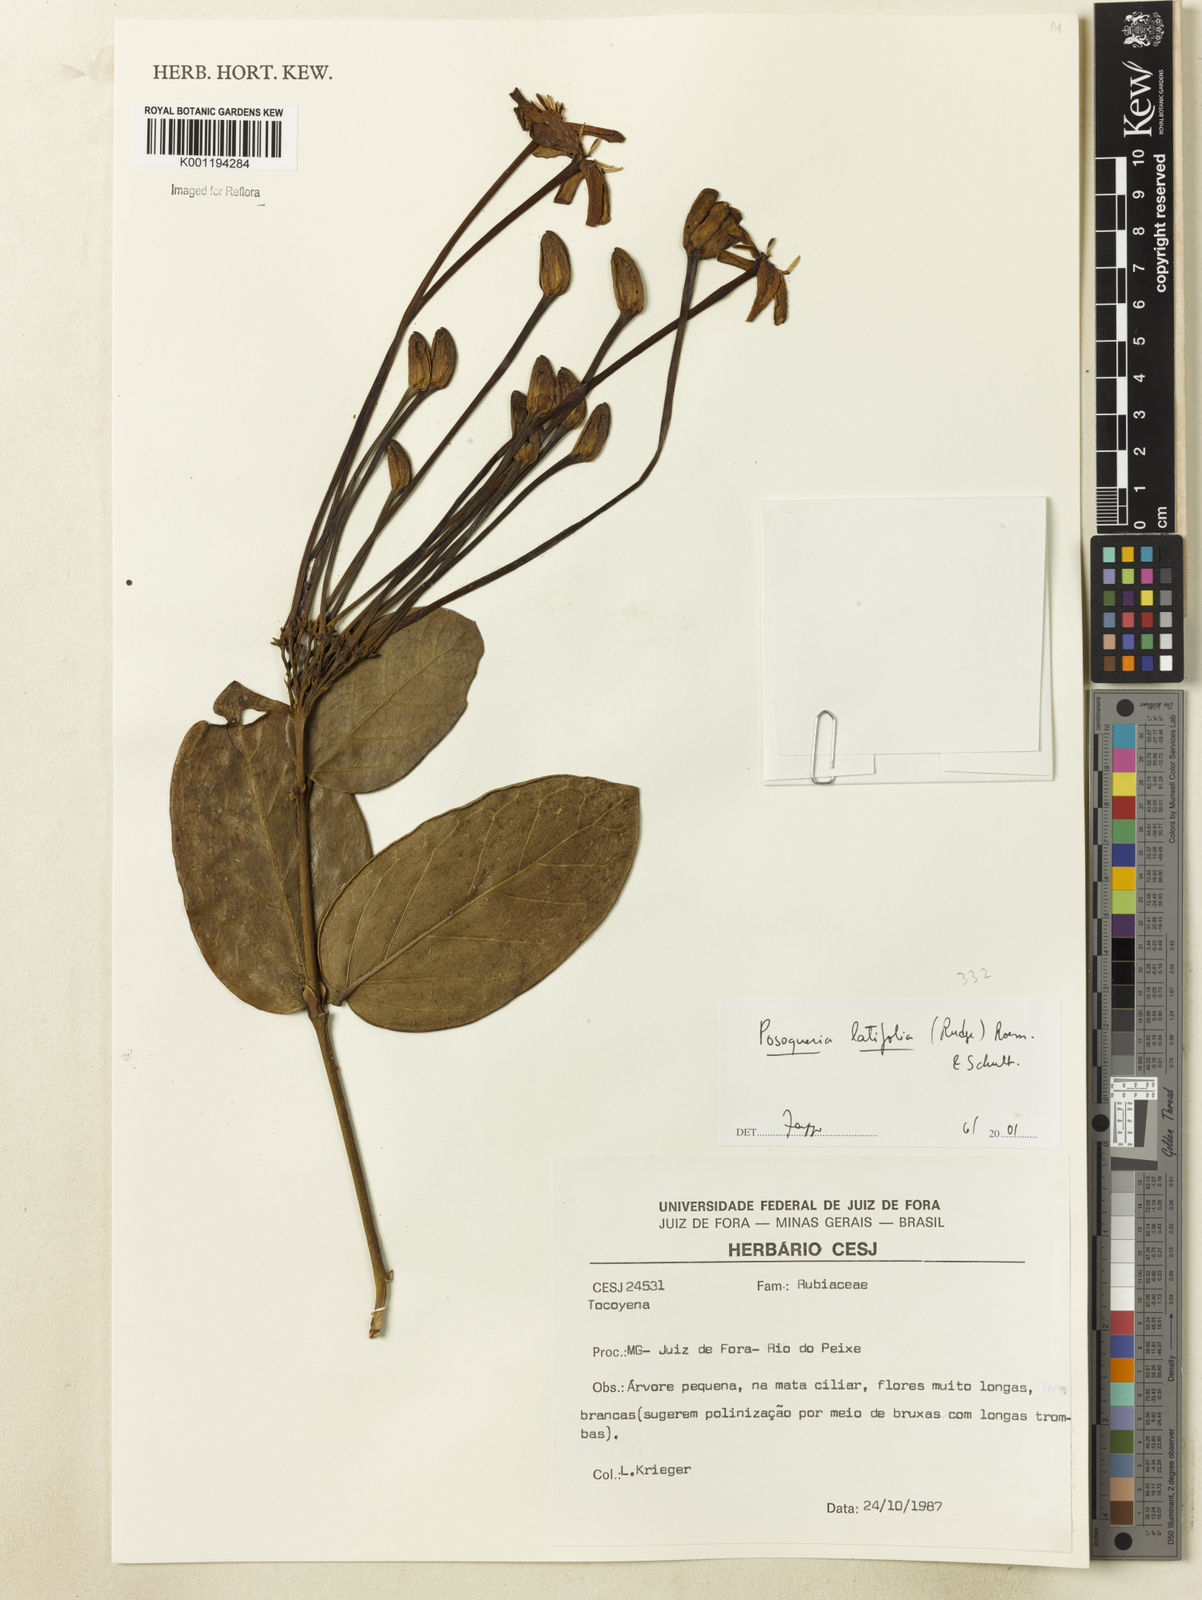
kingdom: Plantae
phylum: Tracheophyta
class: Magnoliopsida
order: Gentianales
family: Rubiaceae
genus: Posoqueria
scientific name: Posoqueria latifolia
